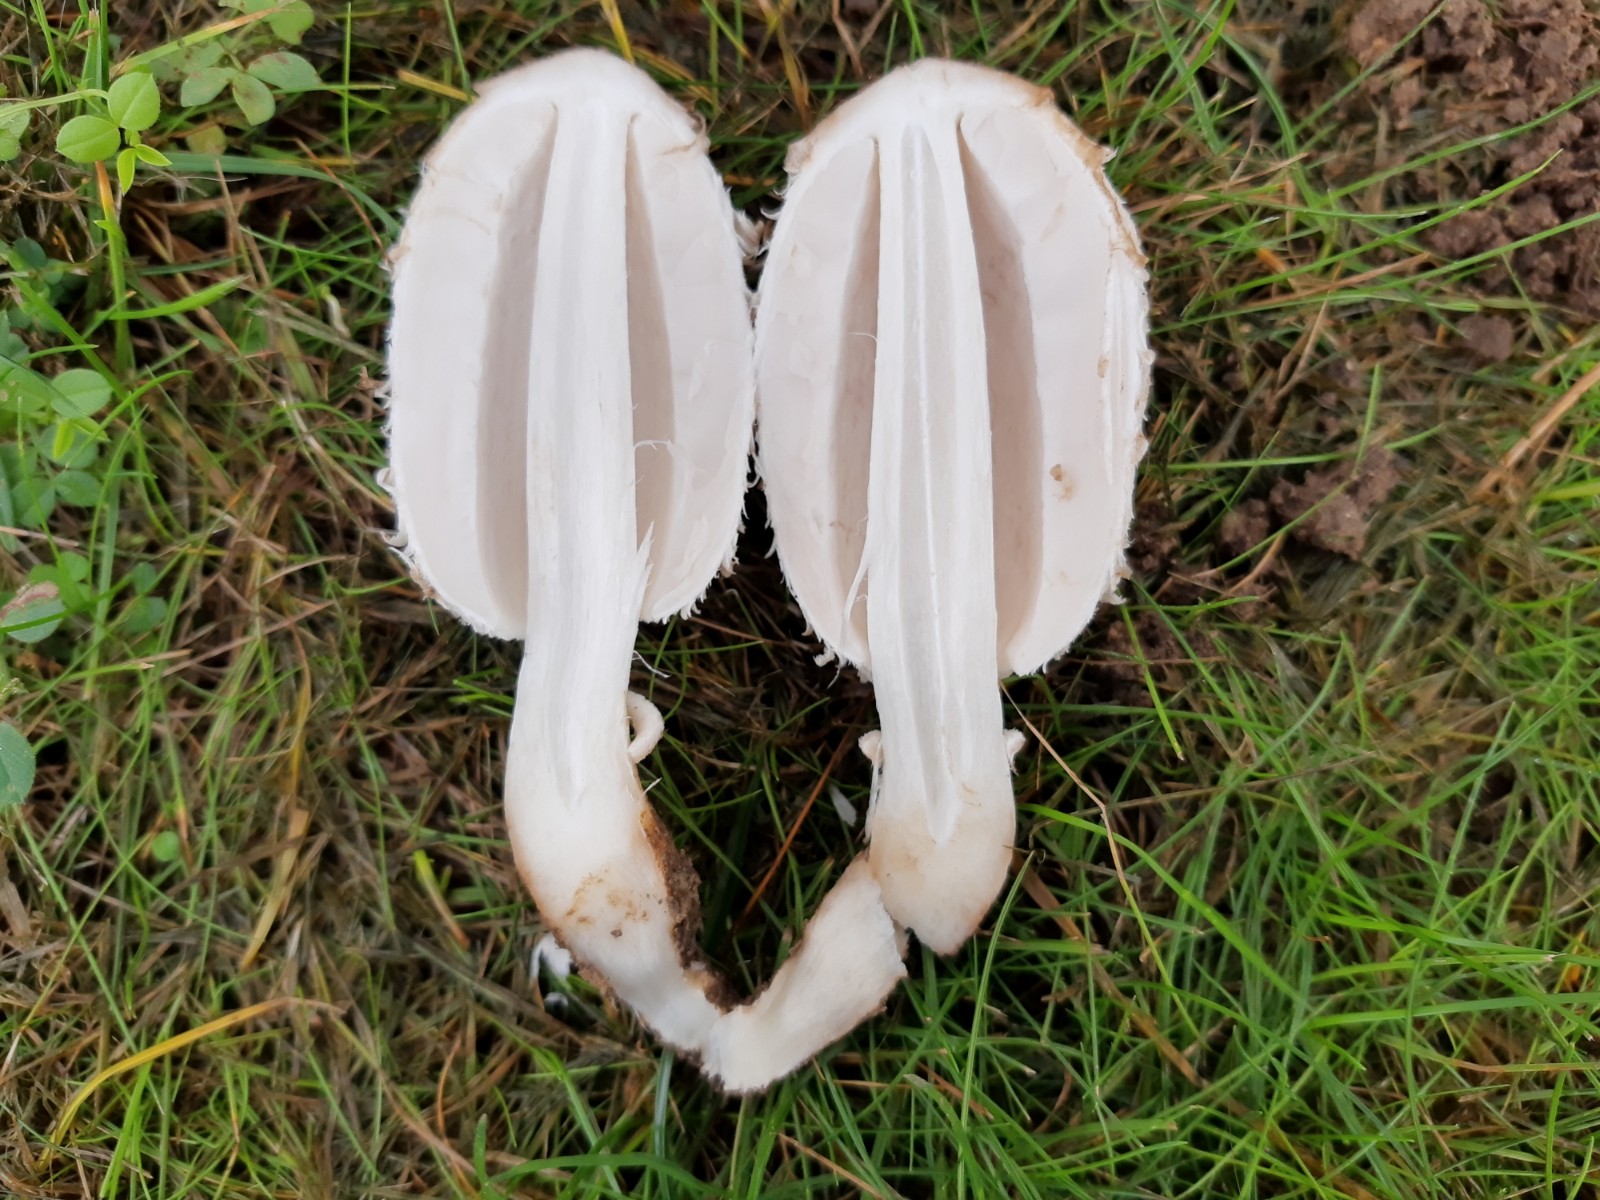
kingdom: Fungi
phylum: Basidiomycota
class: Agaricomycetes
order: Agaricales
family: Agaricaceae
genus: Coprinus
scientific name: Coprinus comatus
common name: stor parykhat
